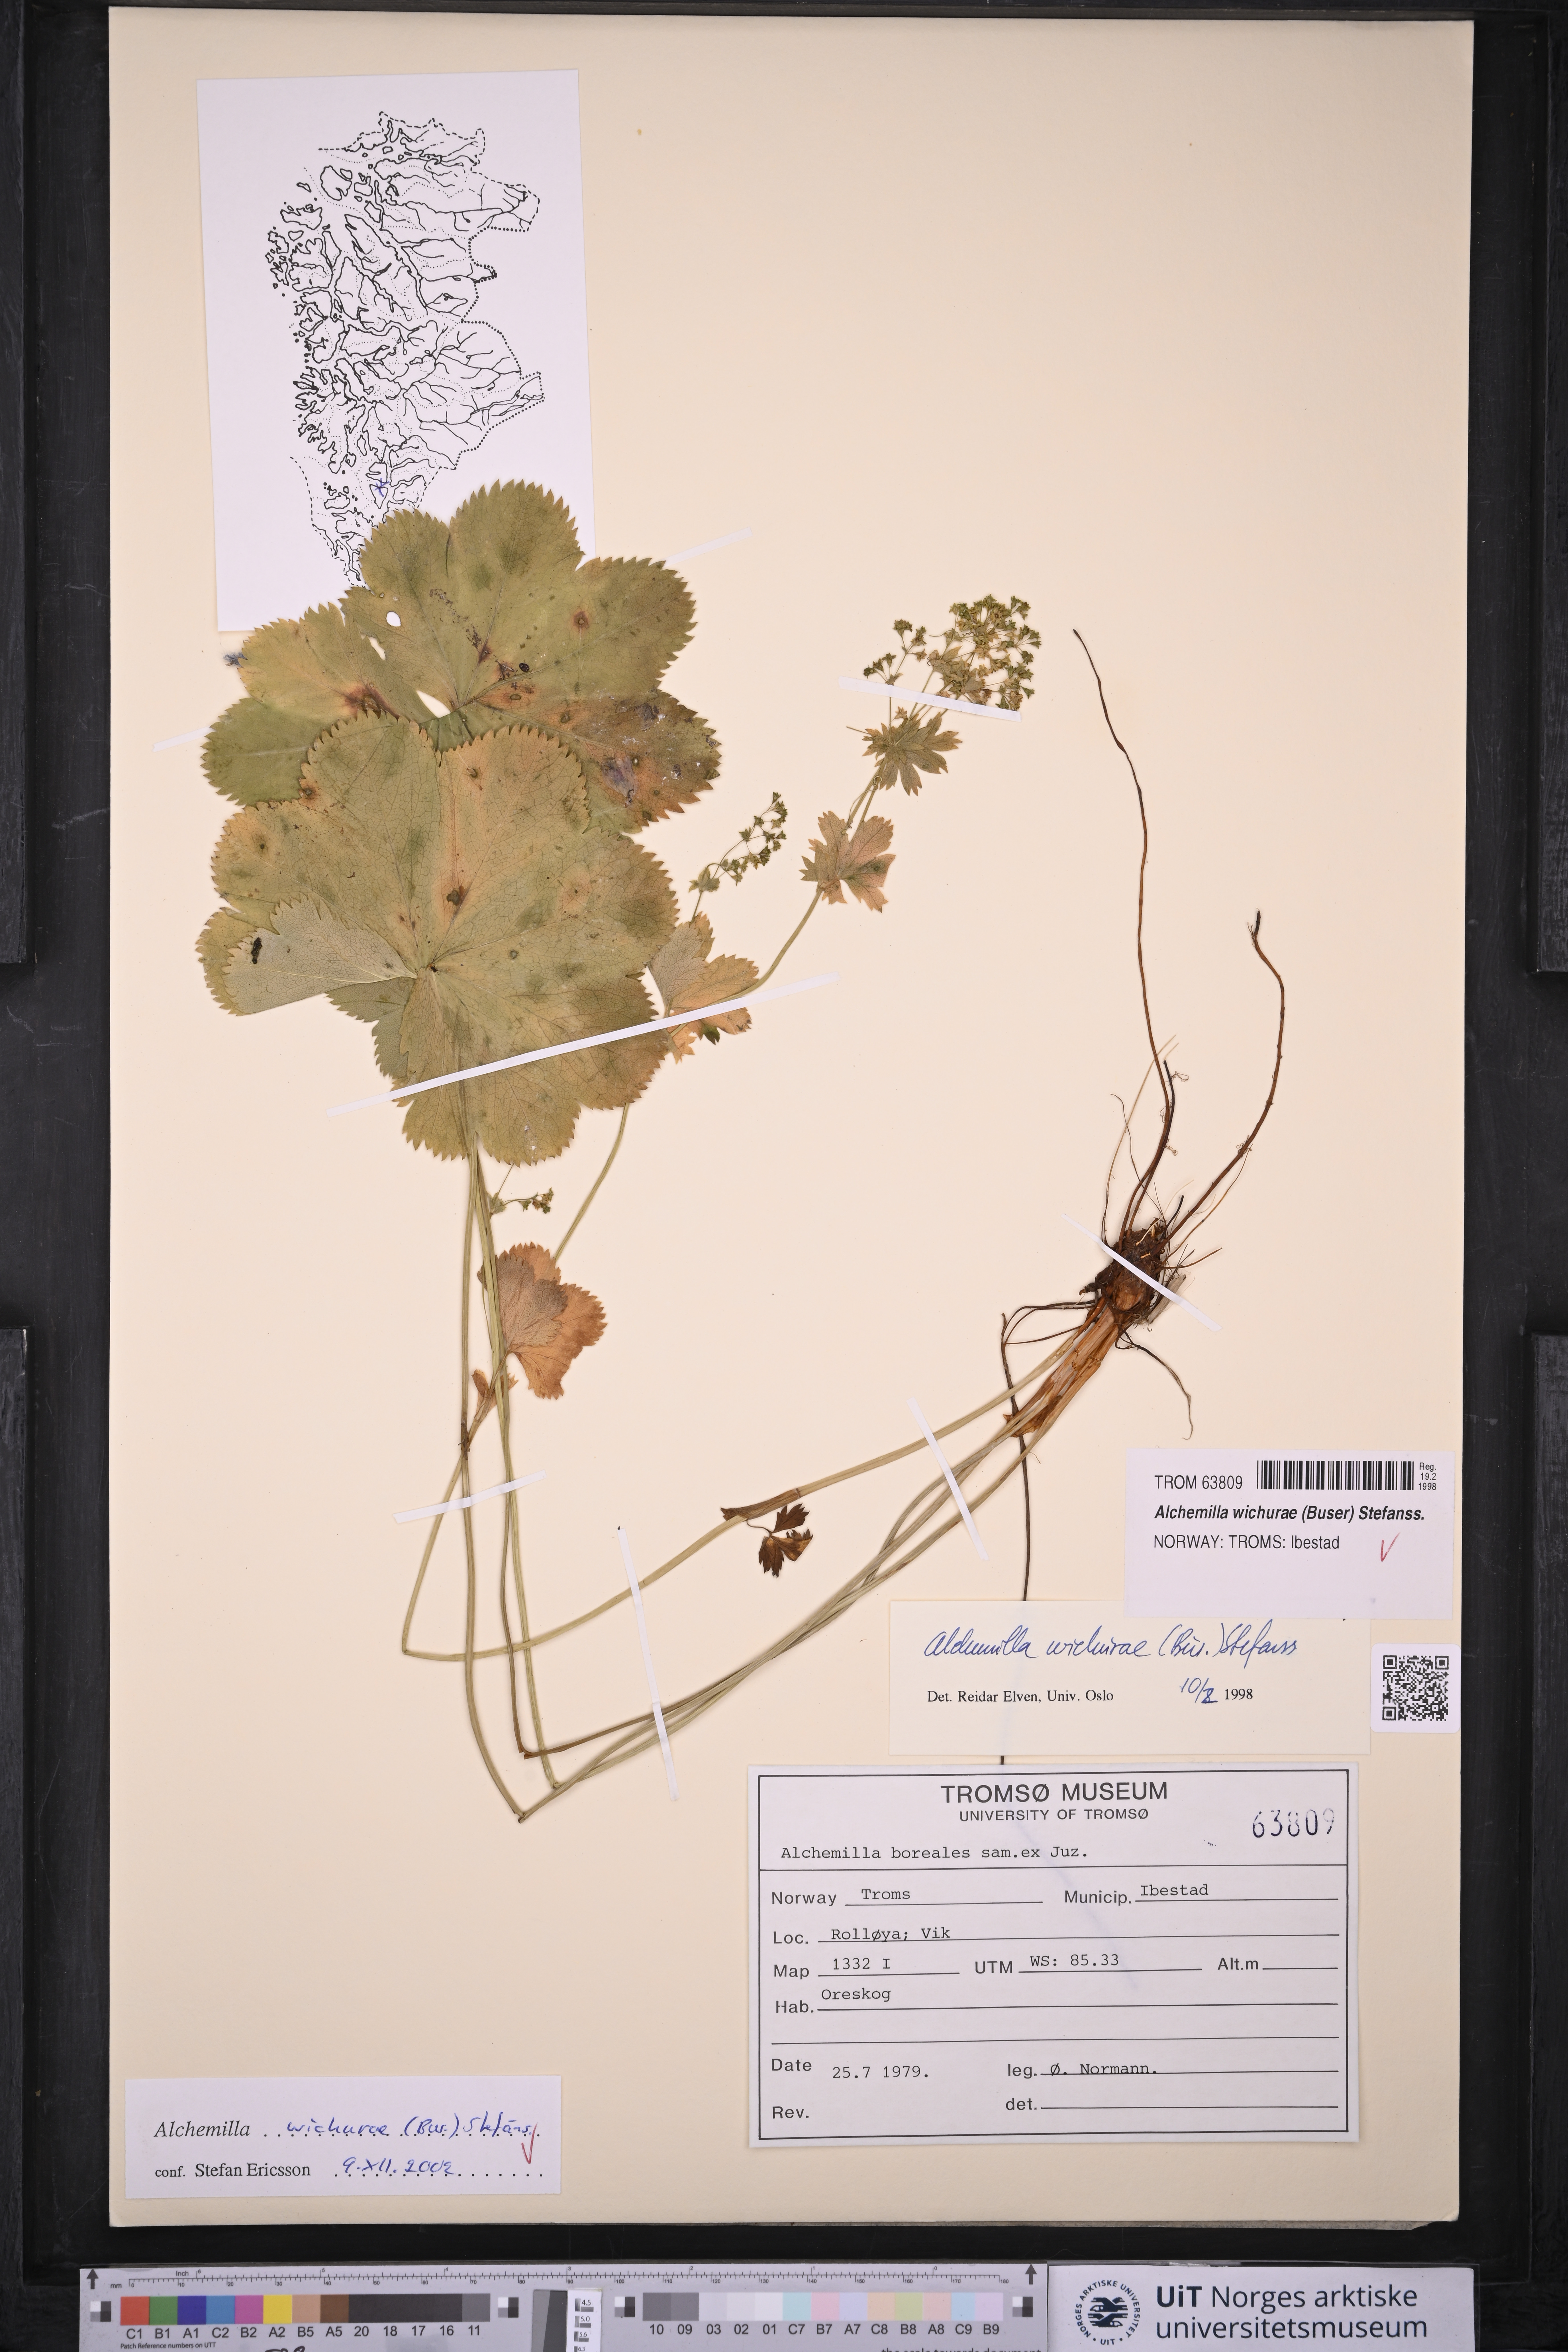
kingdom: Plantae
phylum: Tracheophyta
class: Magnoliopsida
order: Rosales
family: Rosaceae
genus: Alchemilla
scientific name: Alchemilla wichurae
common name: Rock lady's mantle
